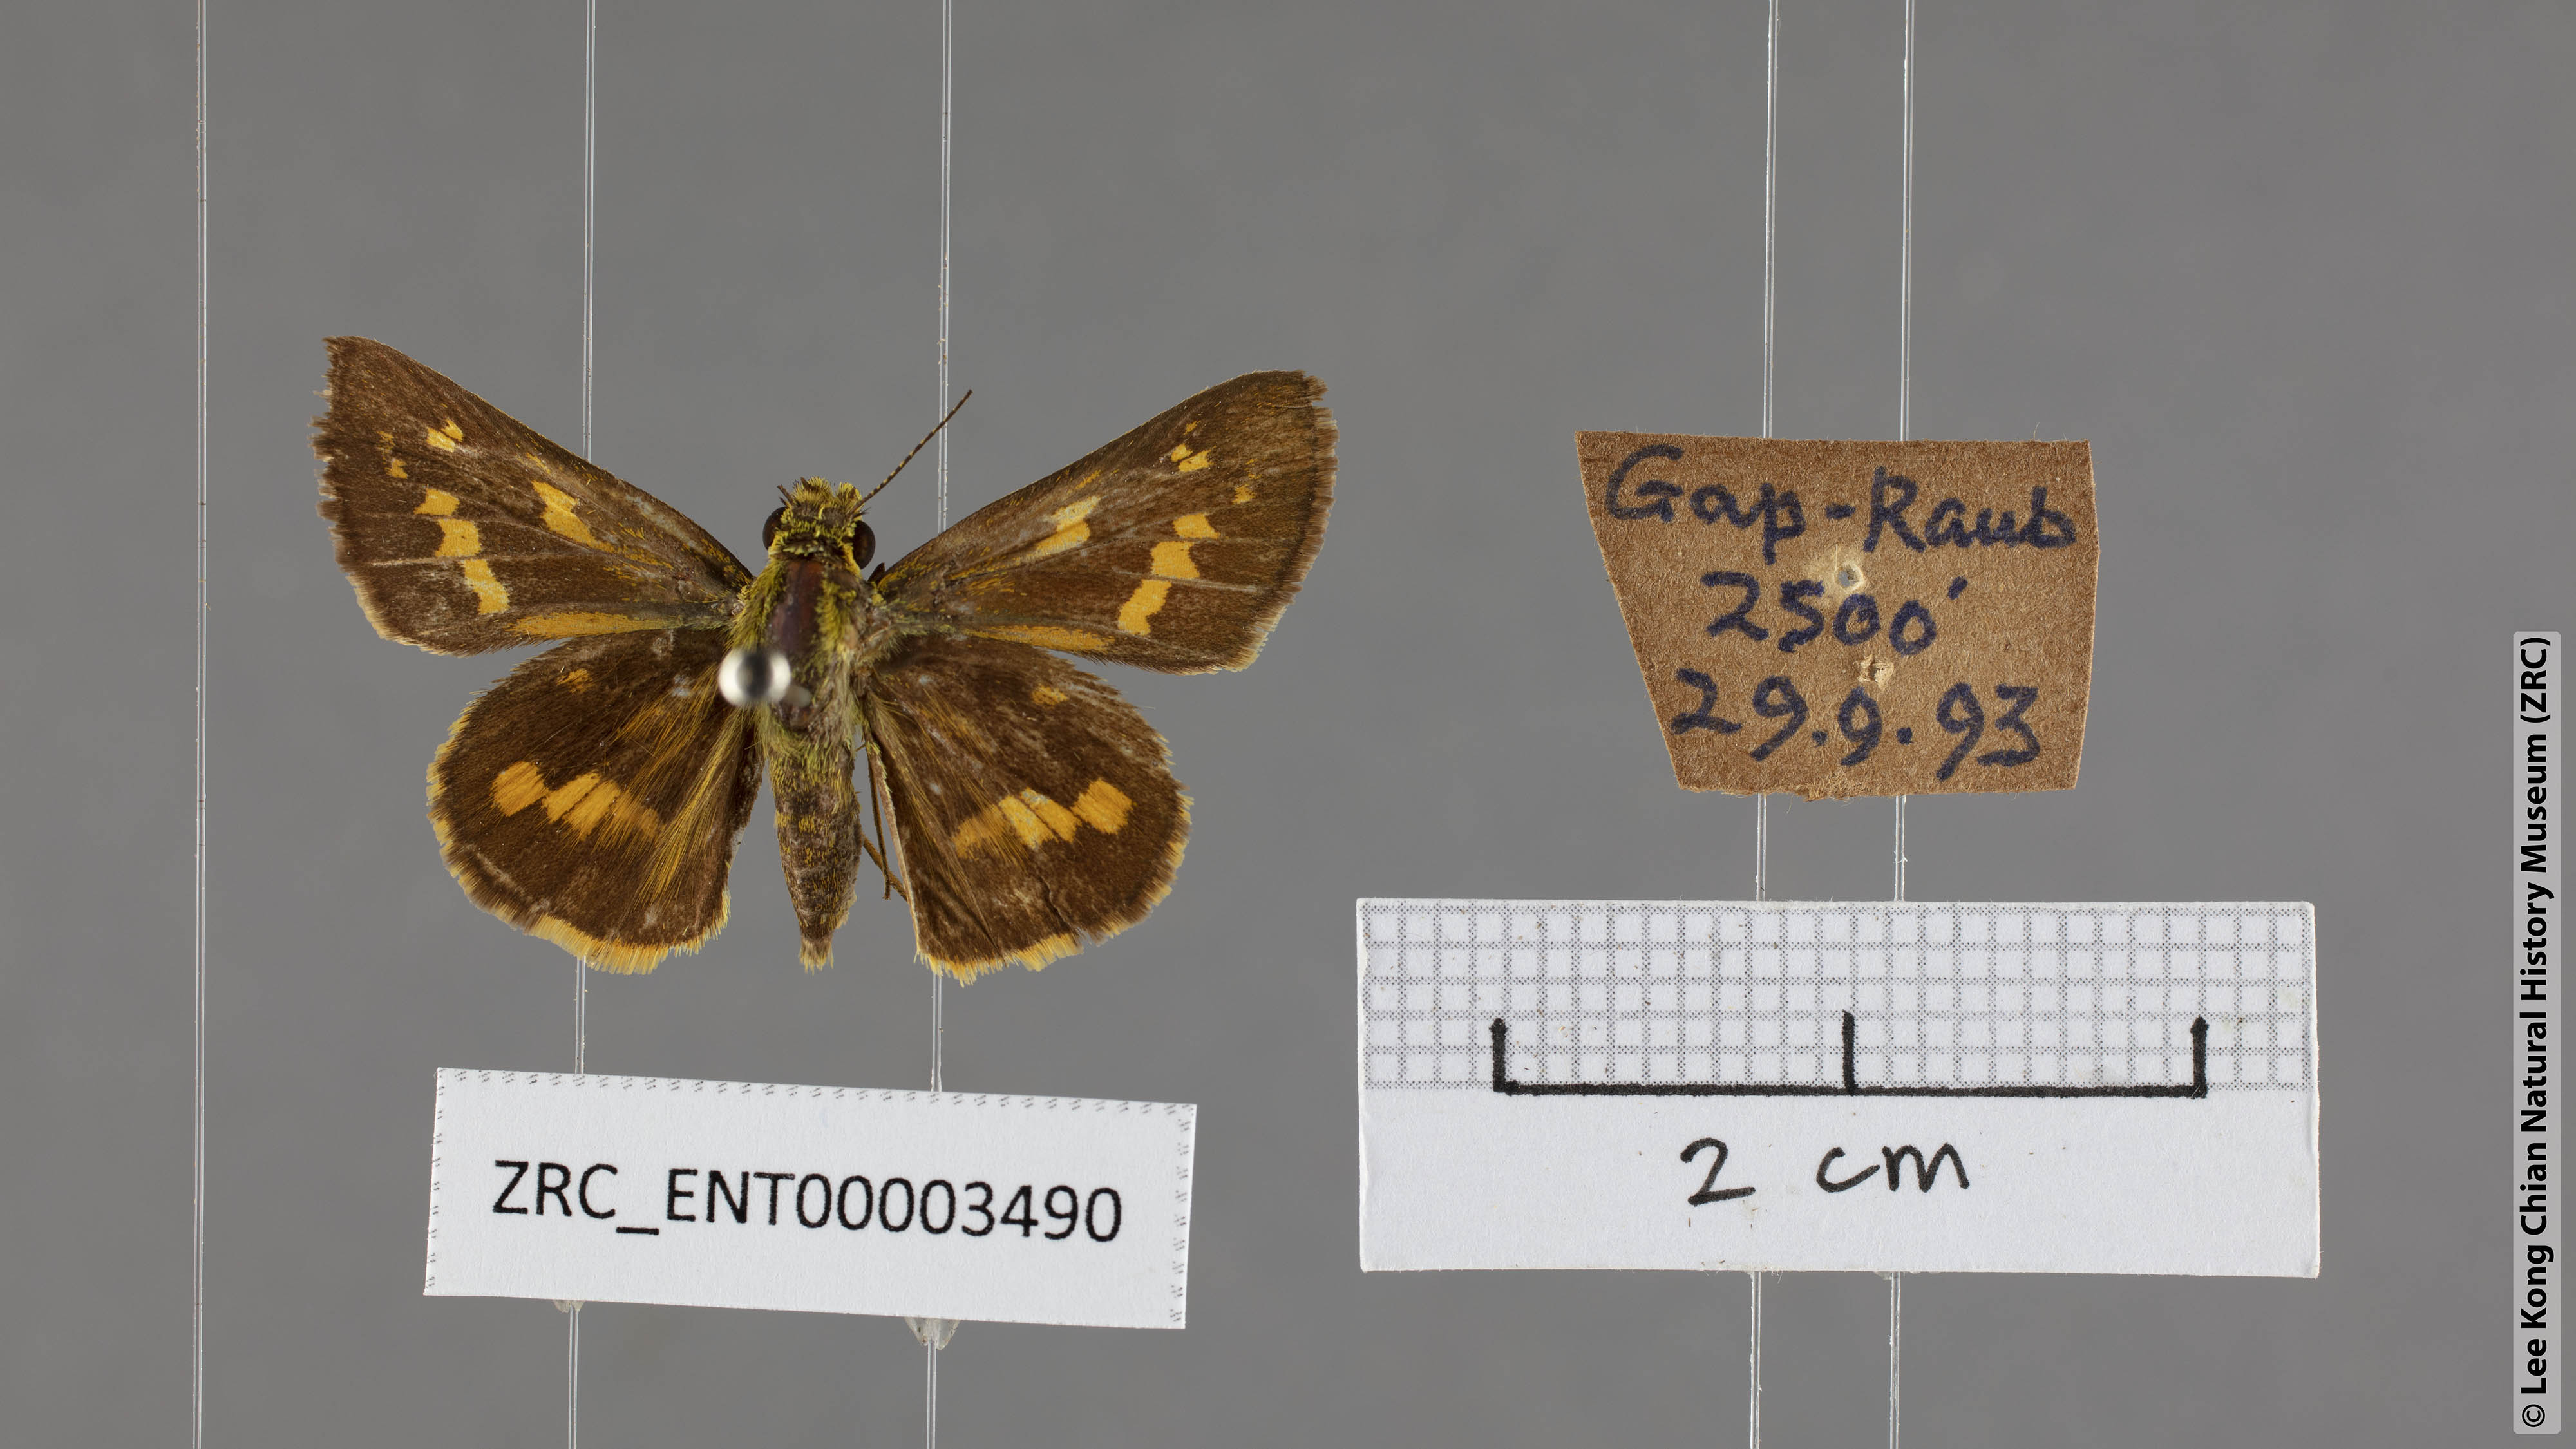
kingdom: Animalia
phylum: Arthropoda
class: Insecta
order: Lepidoptera
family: Hesperiidae
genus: Potanthus
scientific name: Potanthus trachala
